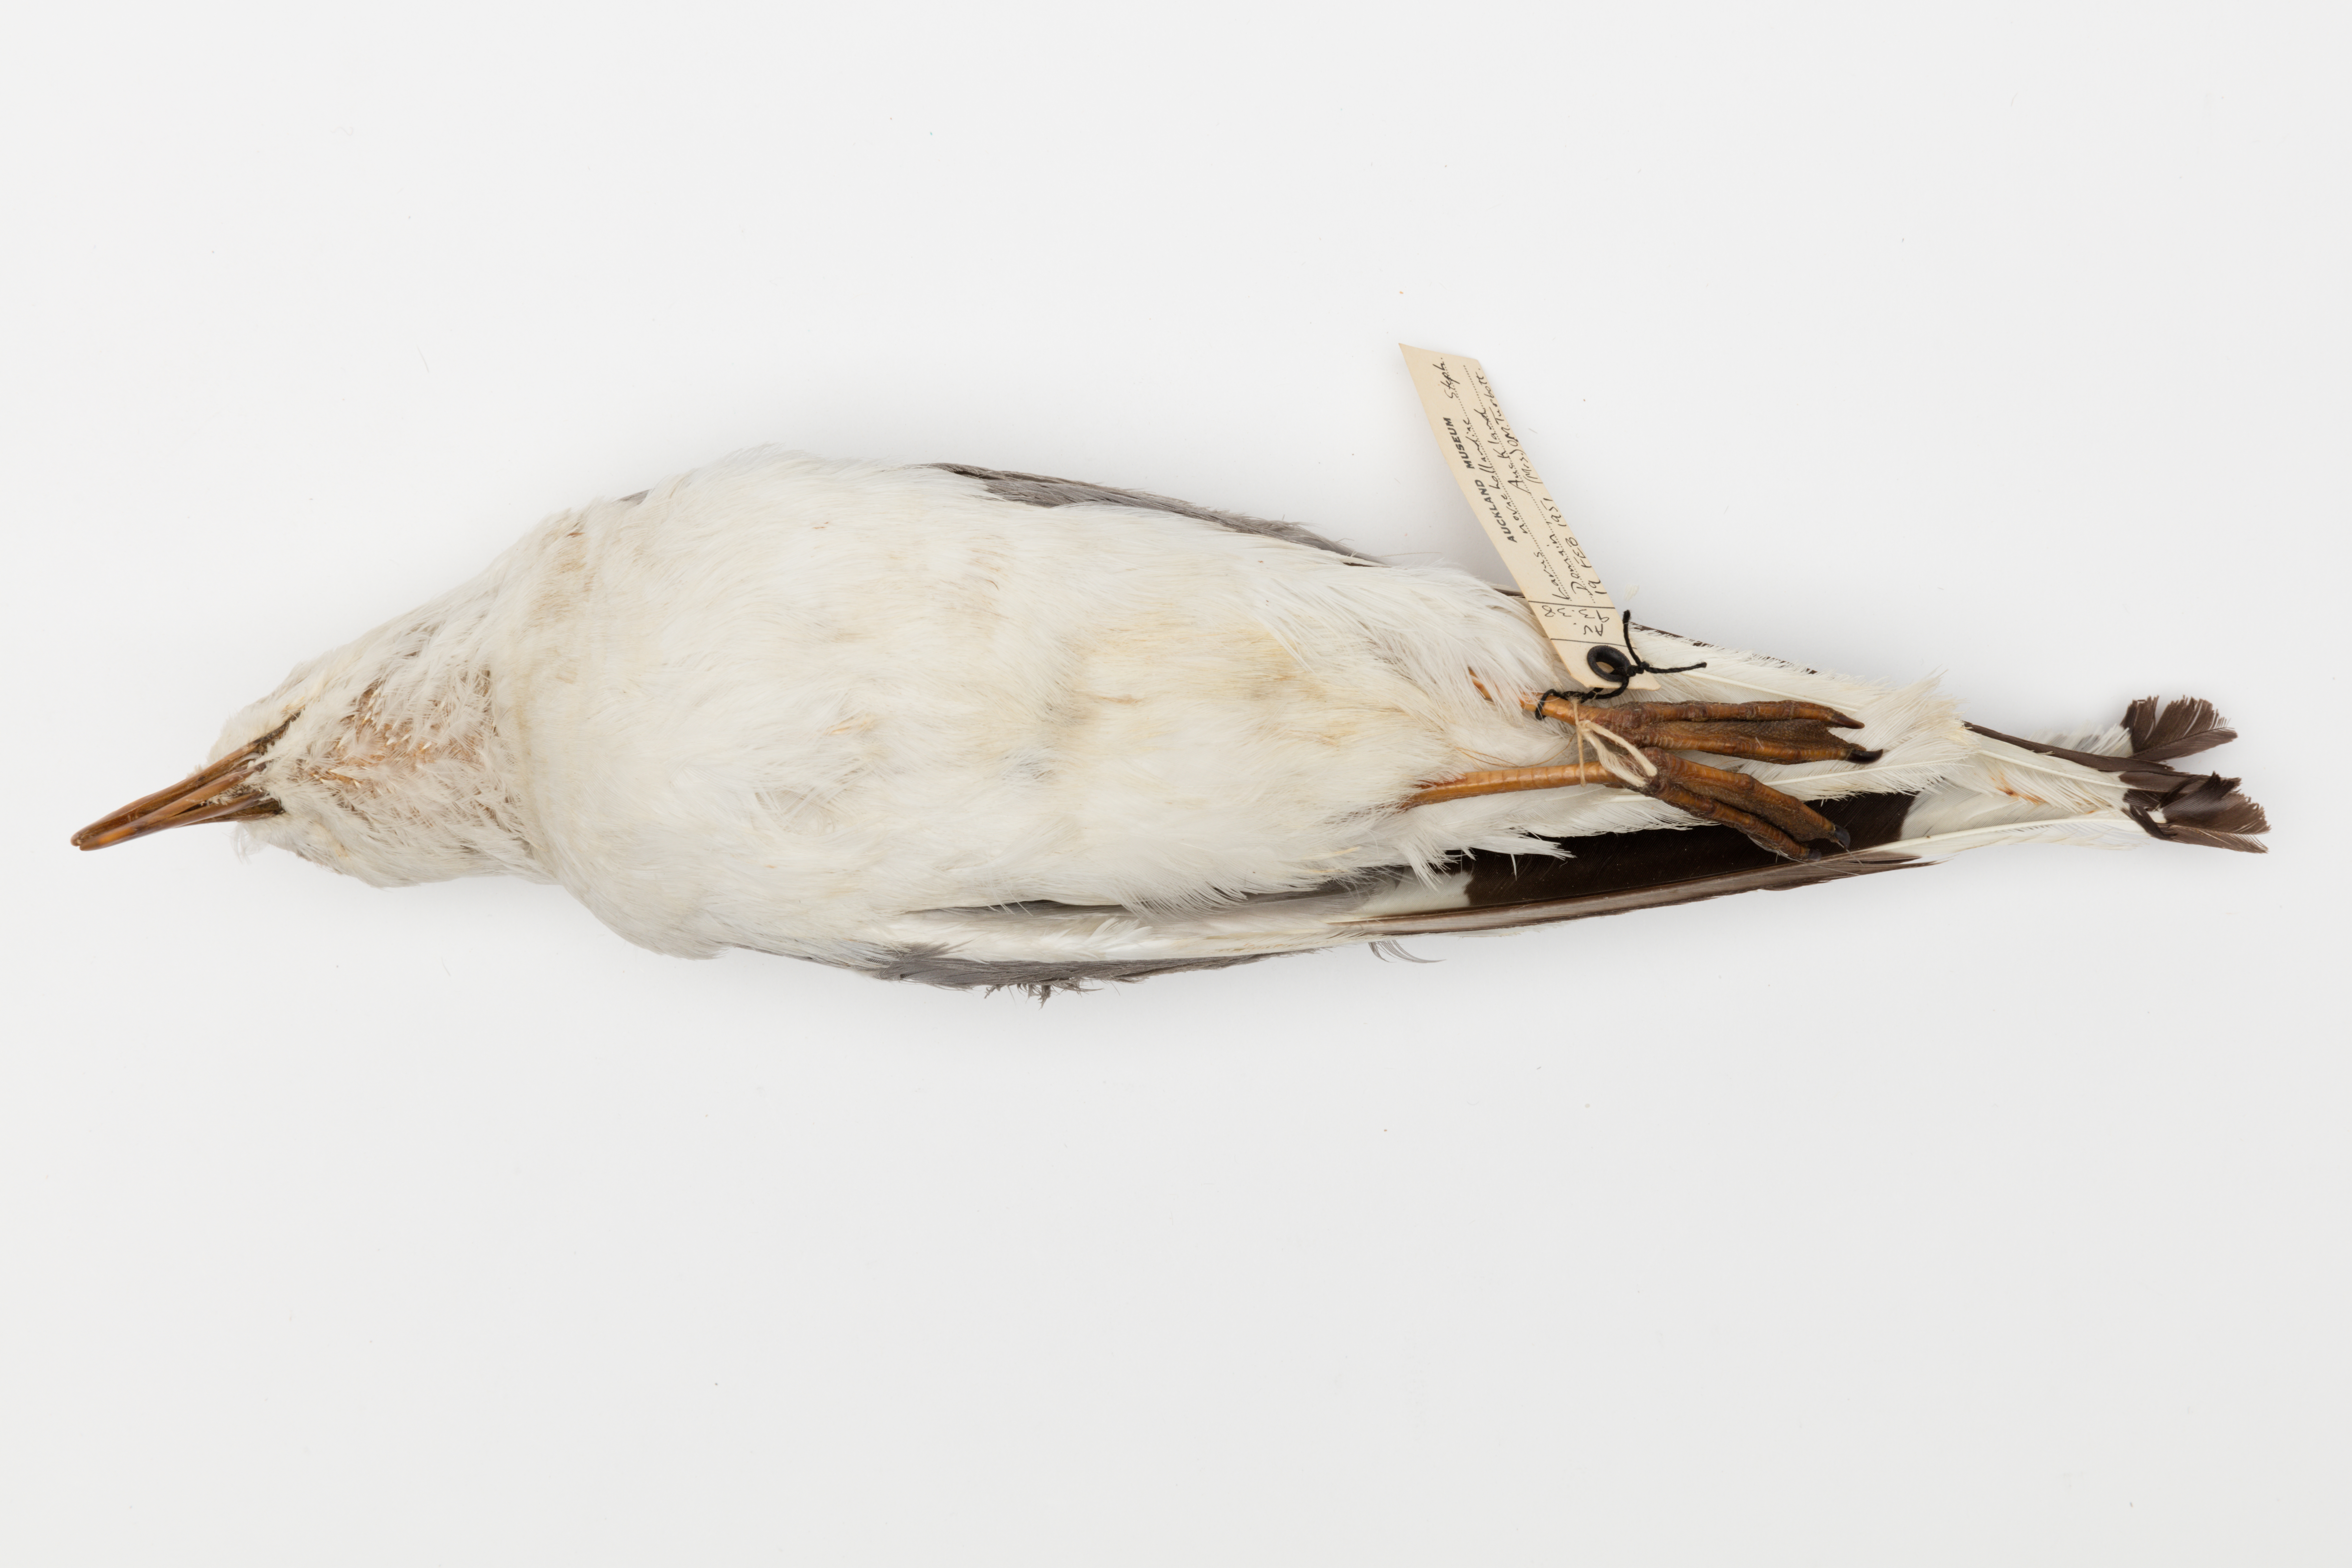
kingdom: Animalia
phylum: Chordata
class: Aves
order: Charadriiformes
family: Laridae
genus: Chroicocephalus
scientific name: Chroicocephalus novaehollandiae
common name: Silver gull
